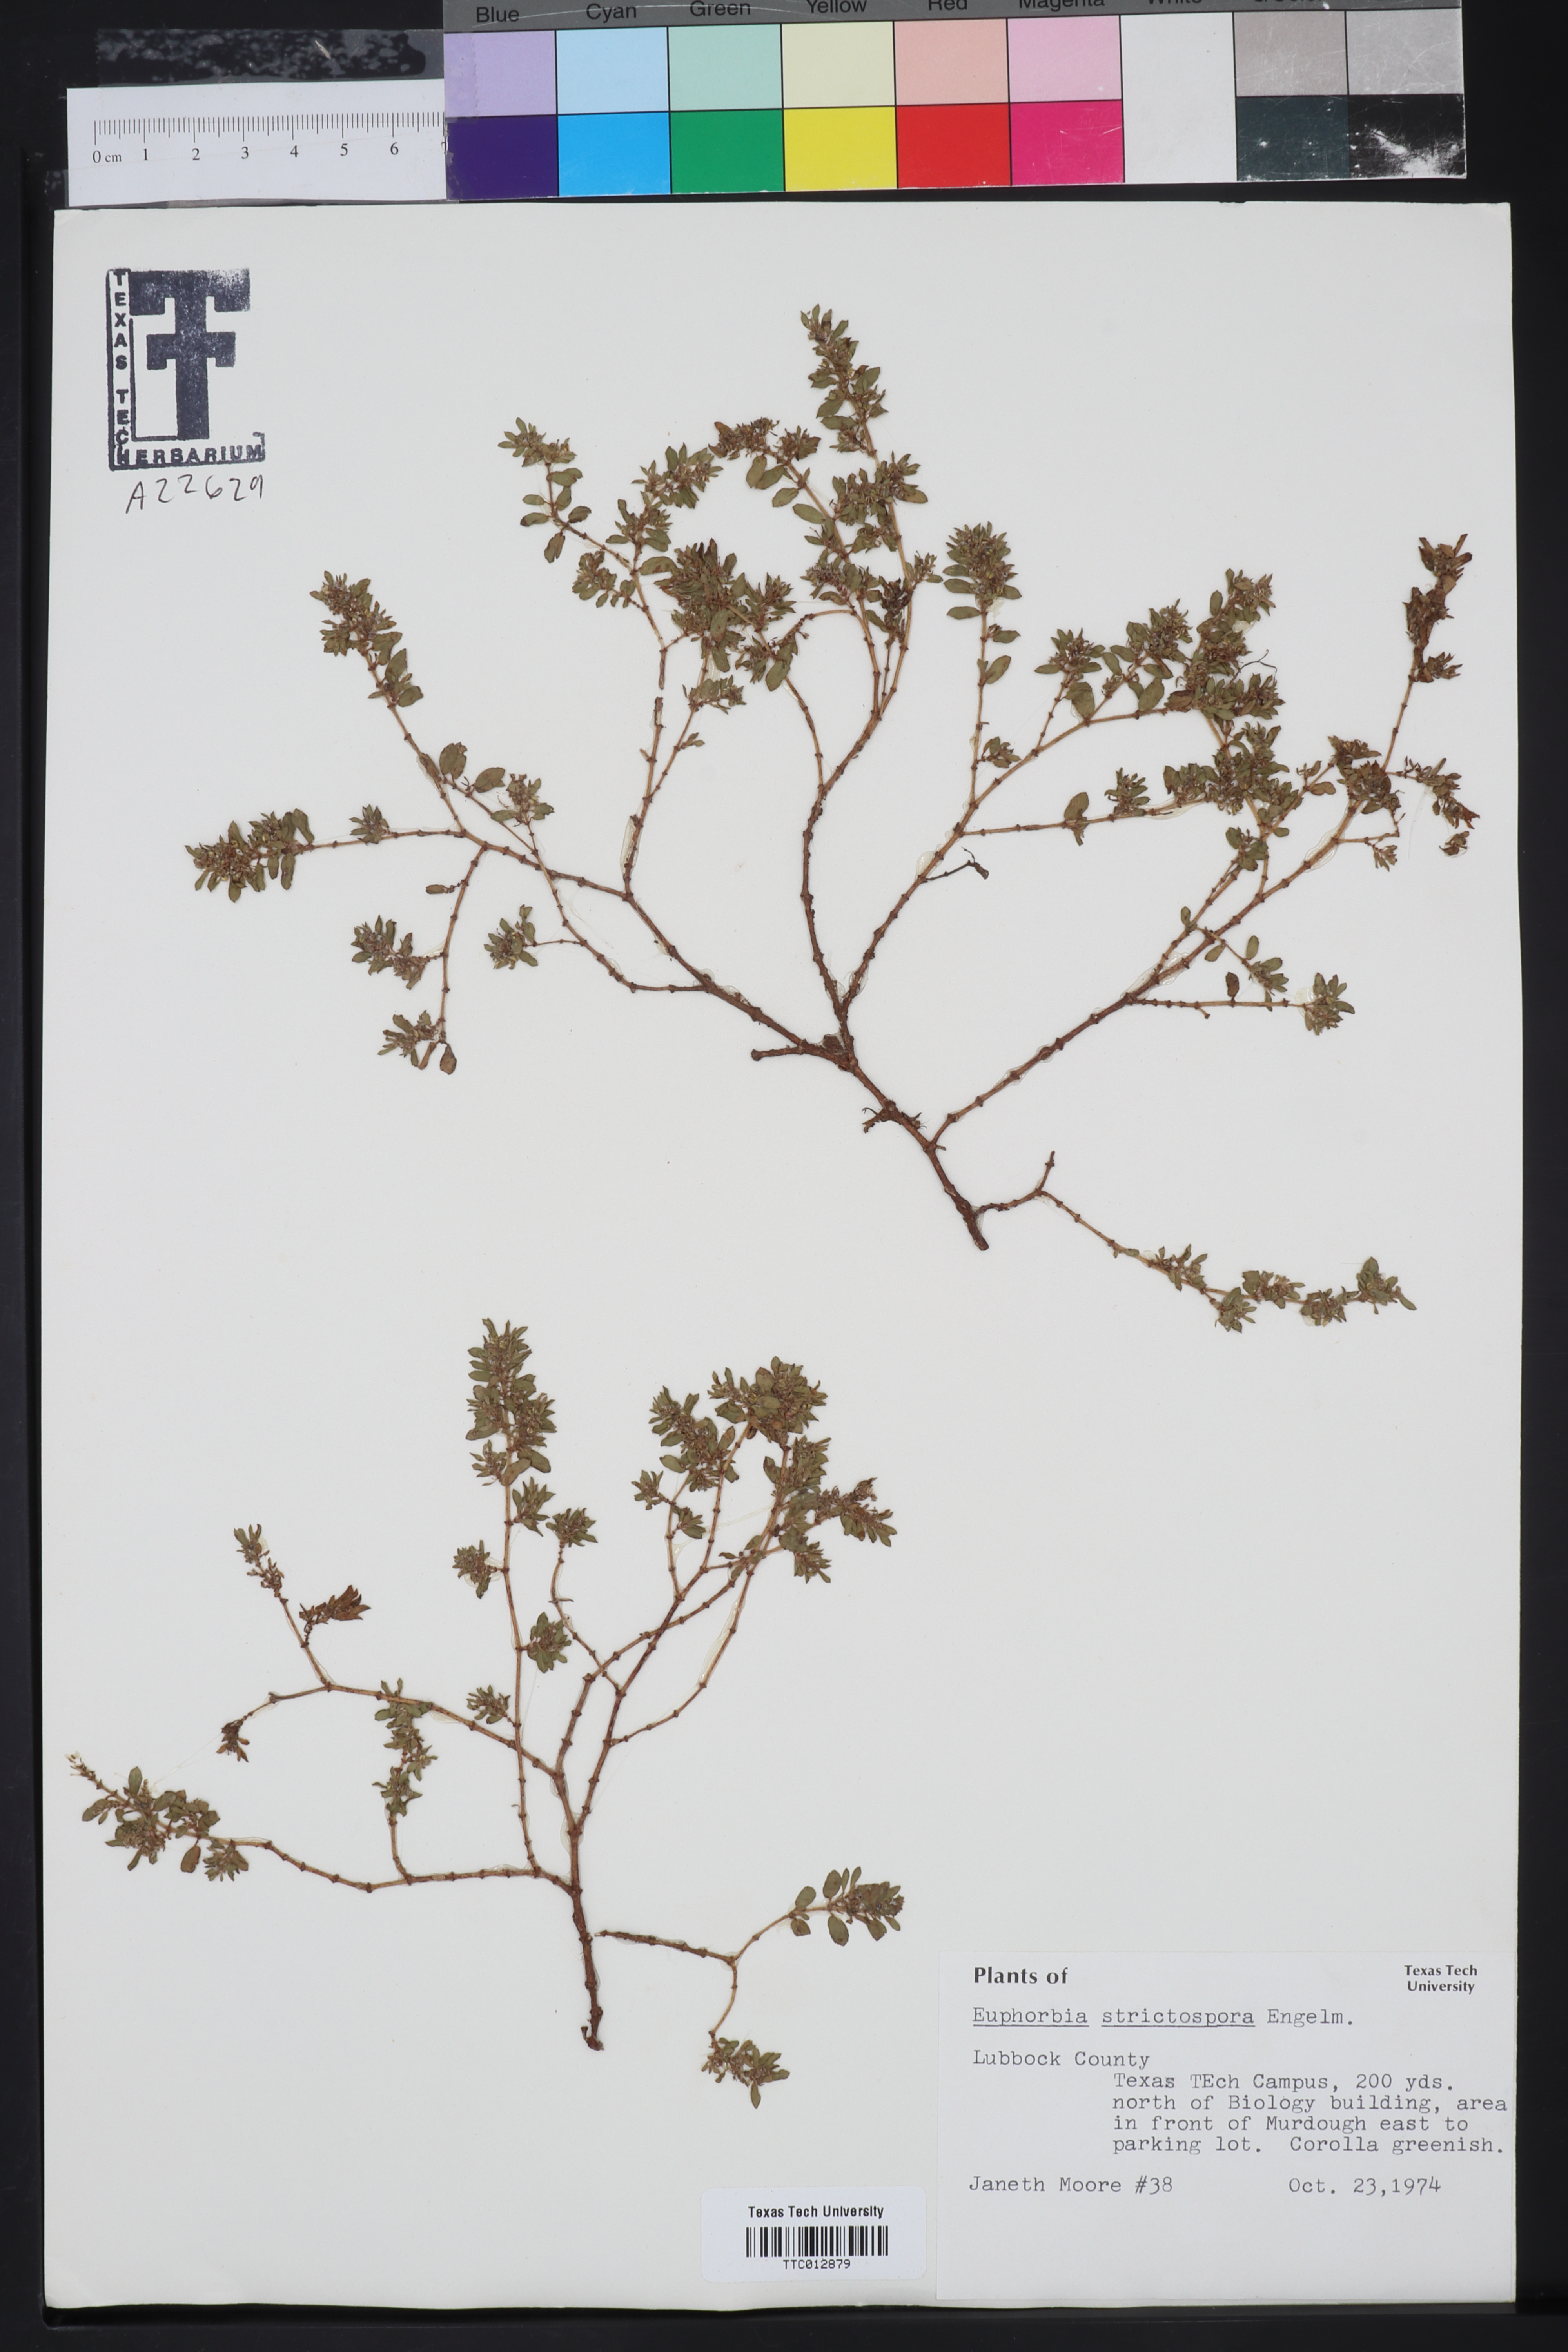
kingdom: Plantae
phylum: Tracheophyta
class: Magnoliopsida
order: Malpighiales
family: Euphorbiaceae
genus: Euphorbia
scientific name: Euphorbia
